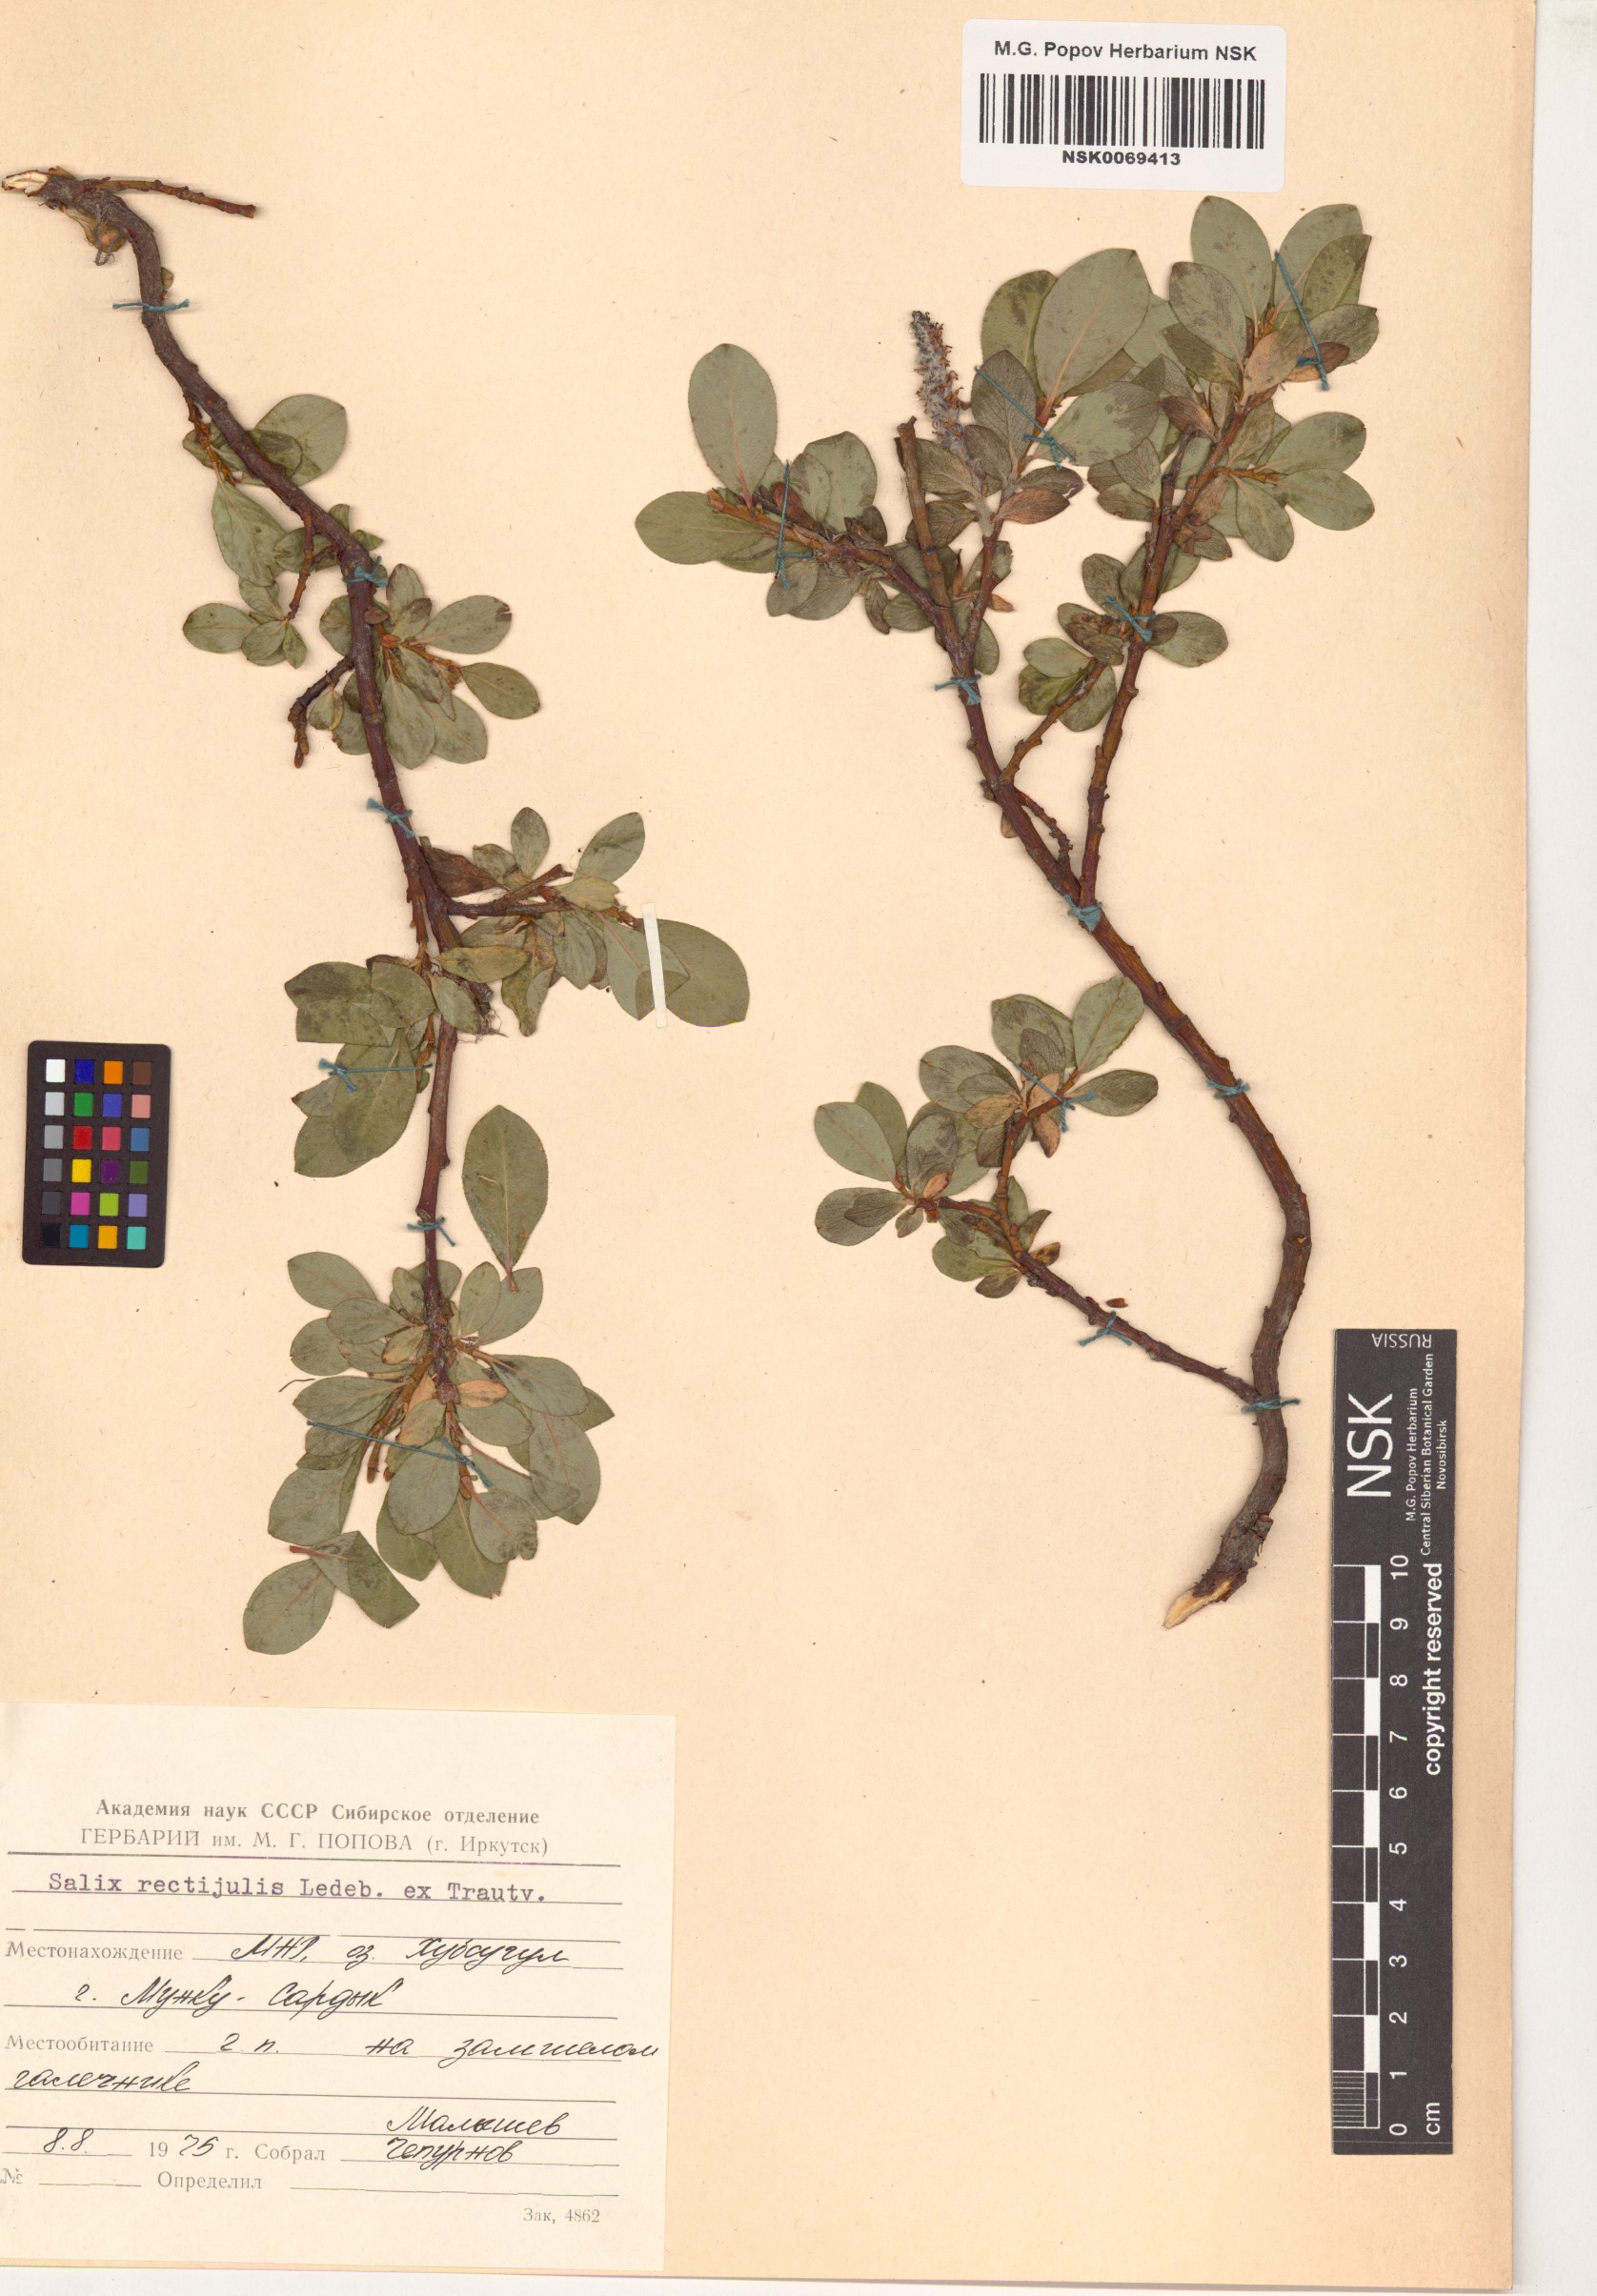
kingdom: Plantae
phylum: Tracheophyta
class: Magnoliopsida
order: Malpighiales
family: Salicaceae
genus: Salix
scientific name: Salix rectijulis
